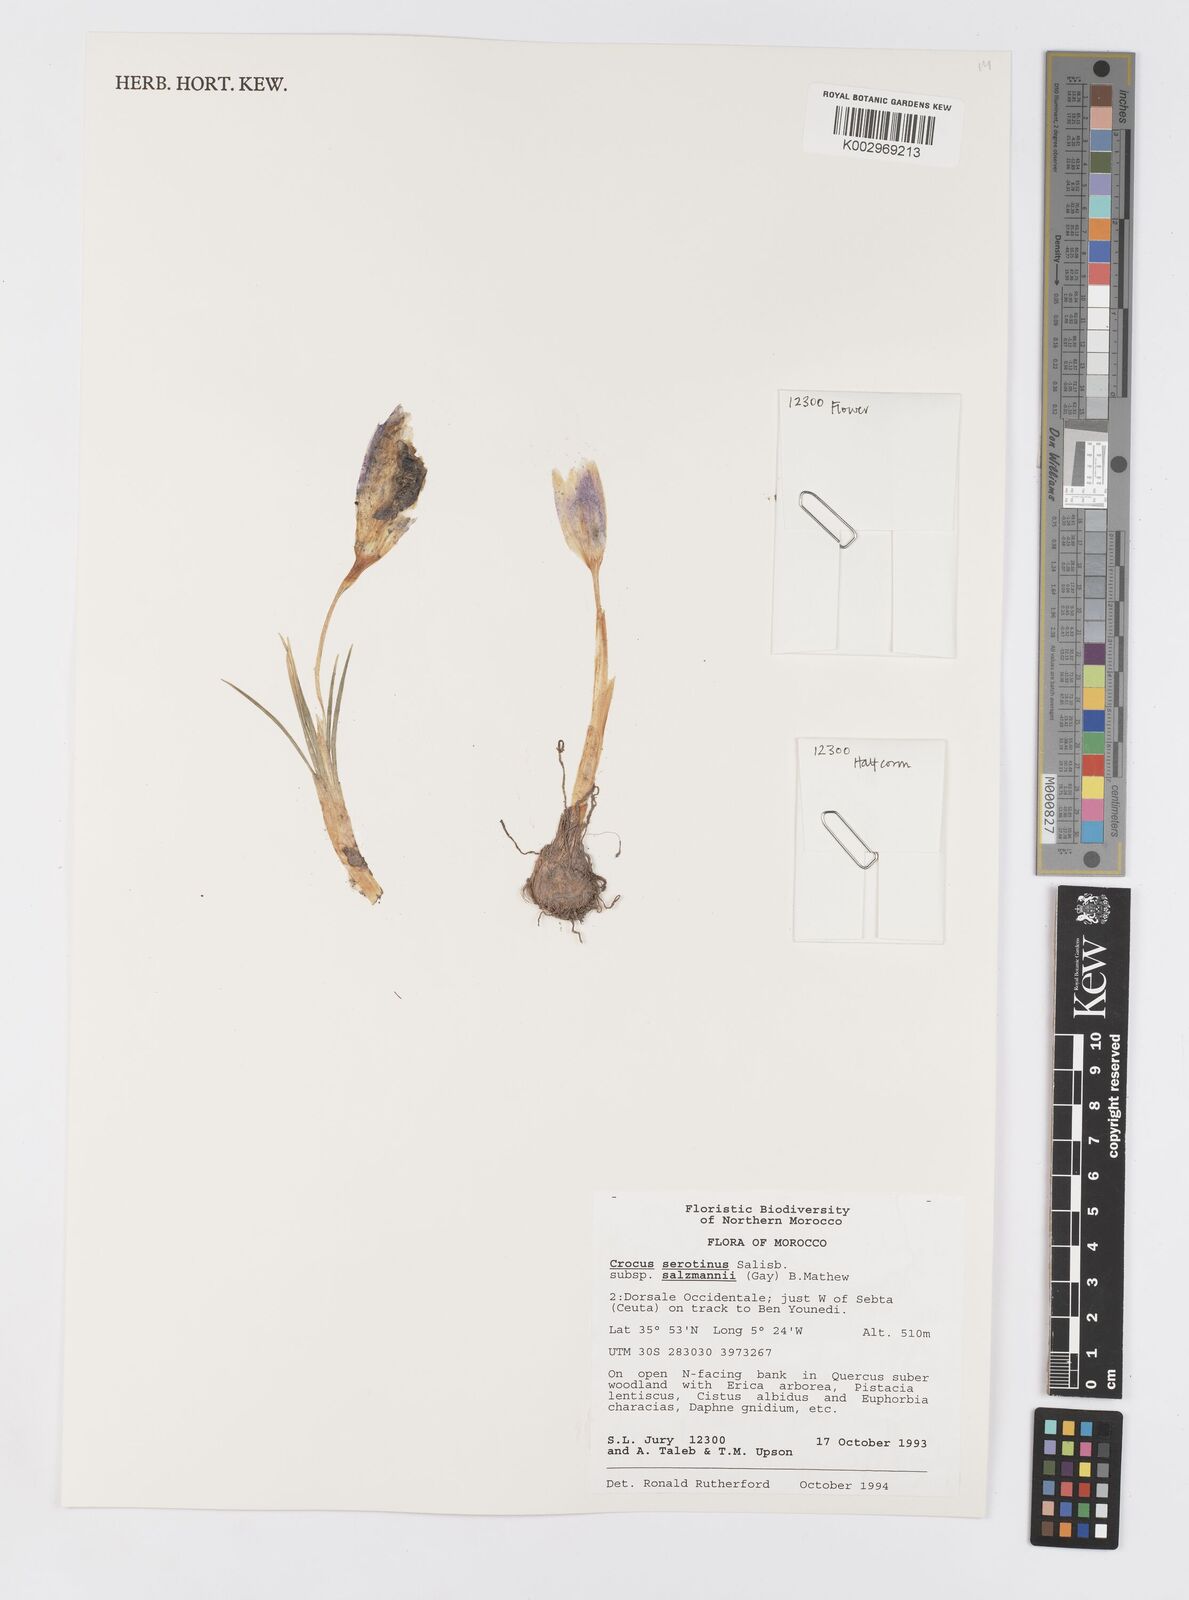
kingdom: Plantae
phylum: Tracheophyta
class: Liliopsida
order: Asparagales
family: Iridaceae
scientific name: Iridaceae
